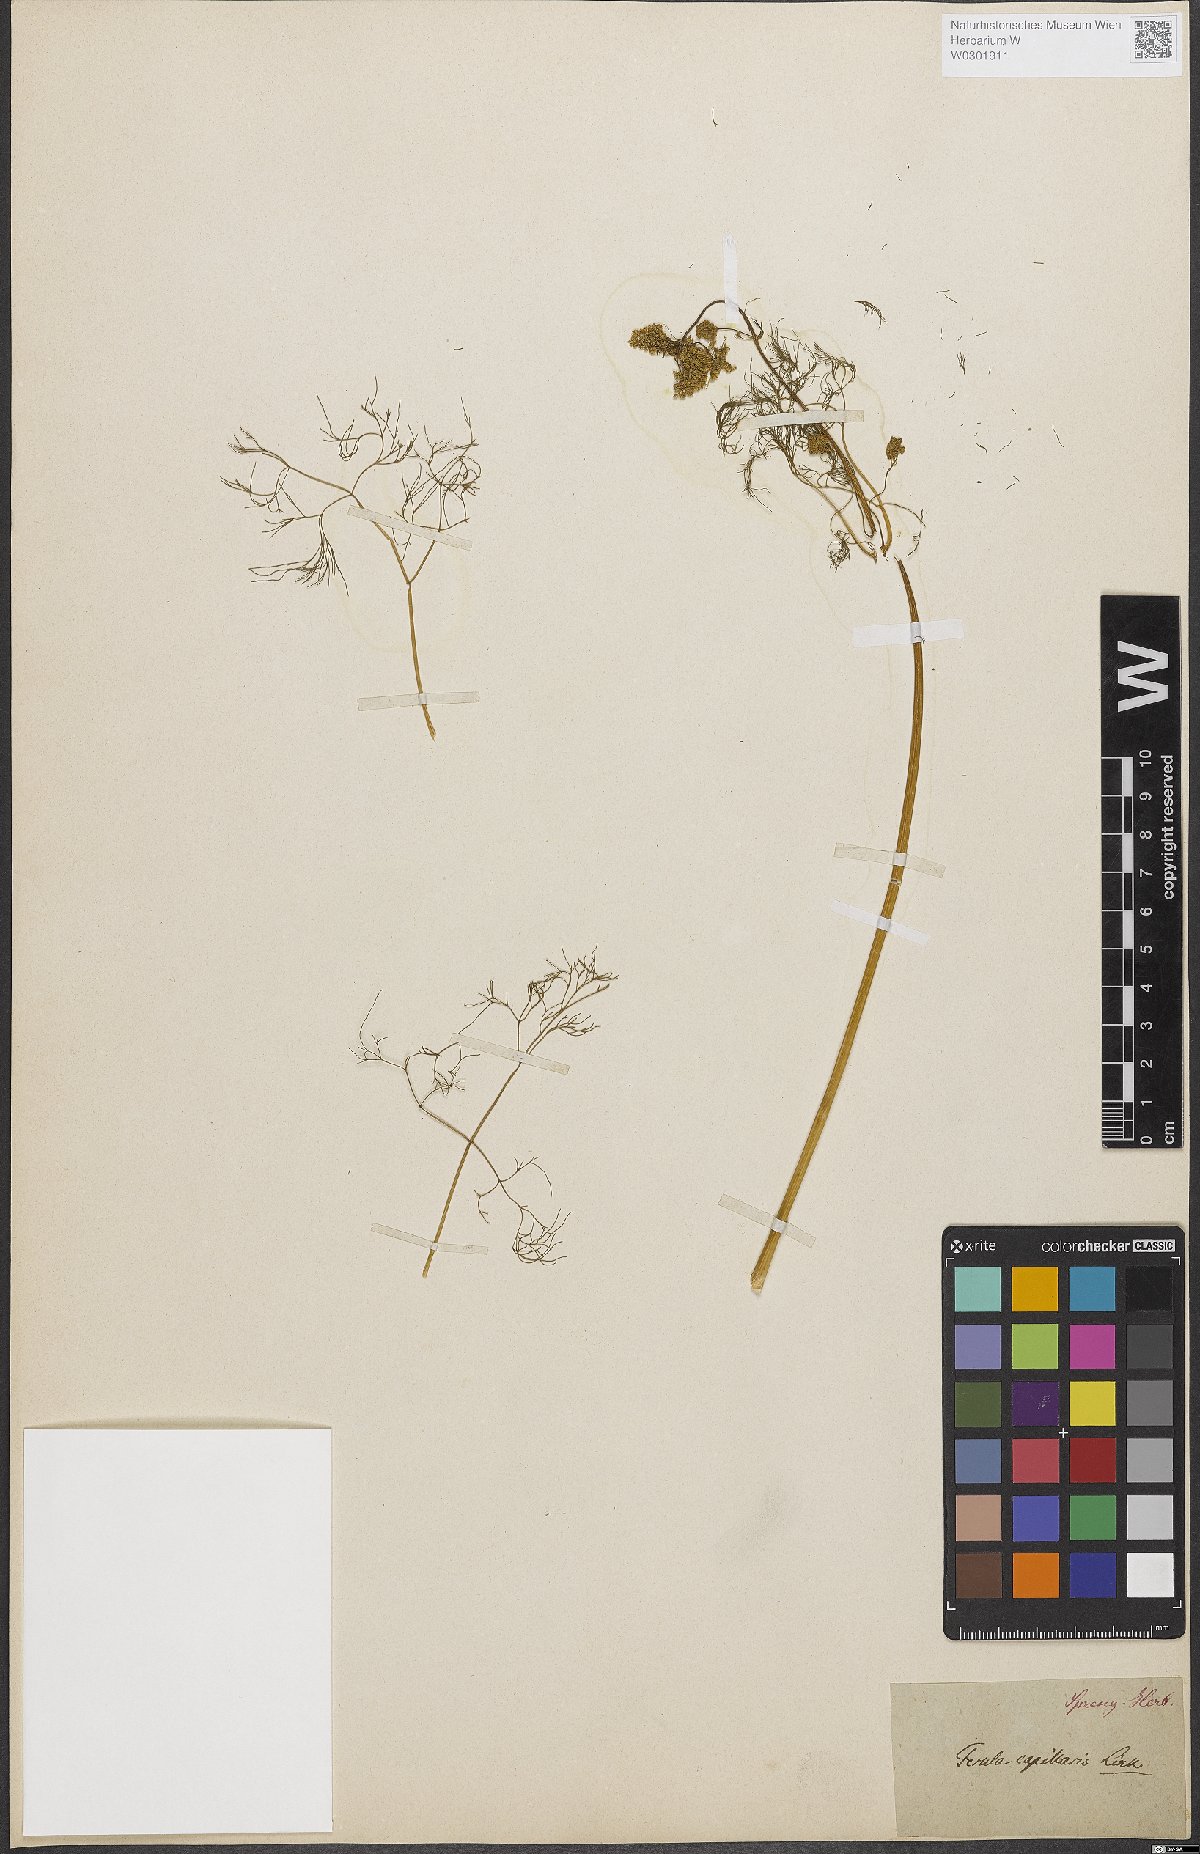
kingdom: Plantae
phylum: Tracheophyta
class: Magnoliopsida
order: Apiales
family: Apiaceae
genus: Ferulago
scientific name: Ferulago capillaris
